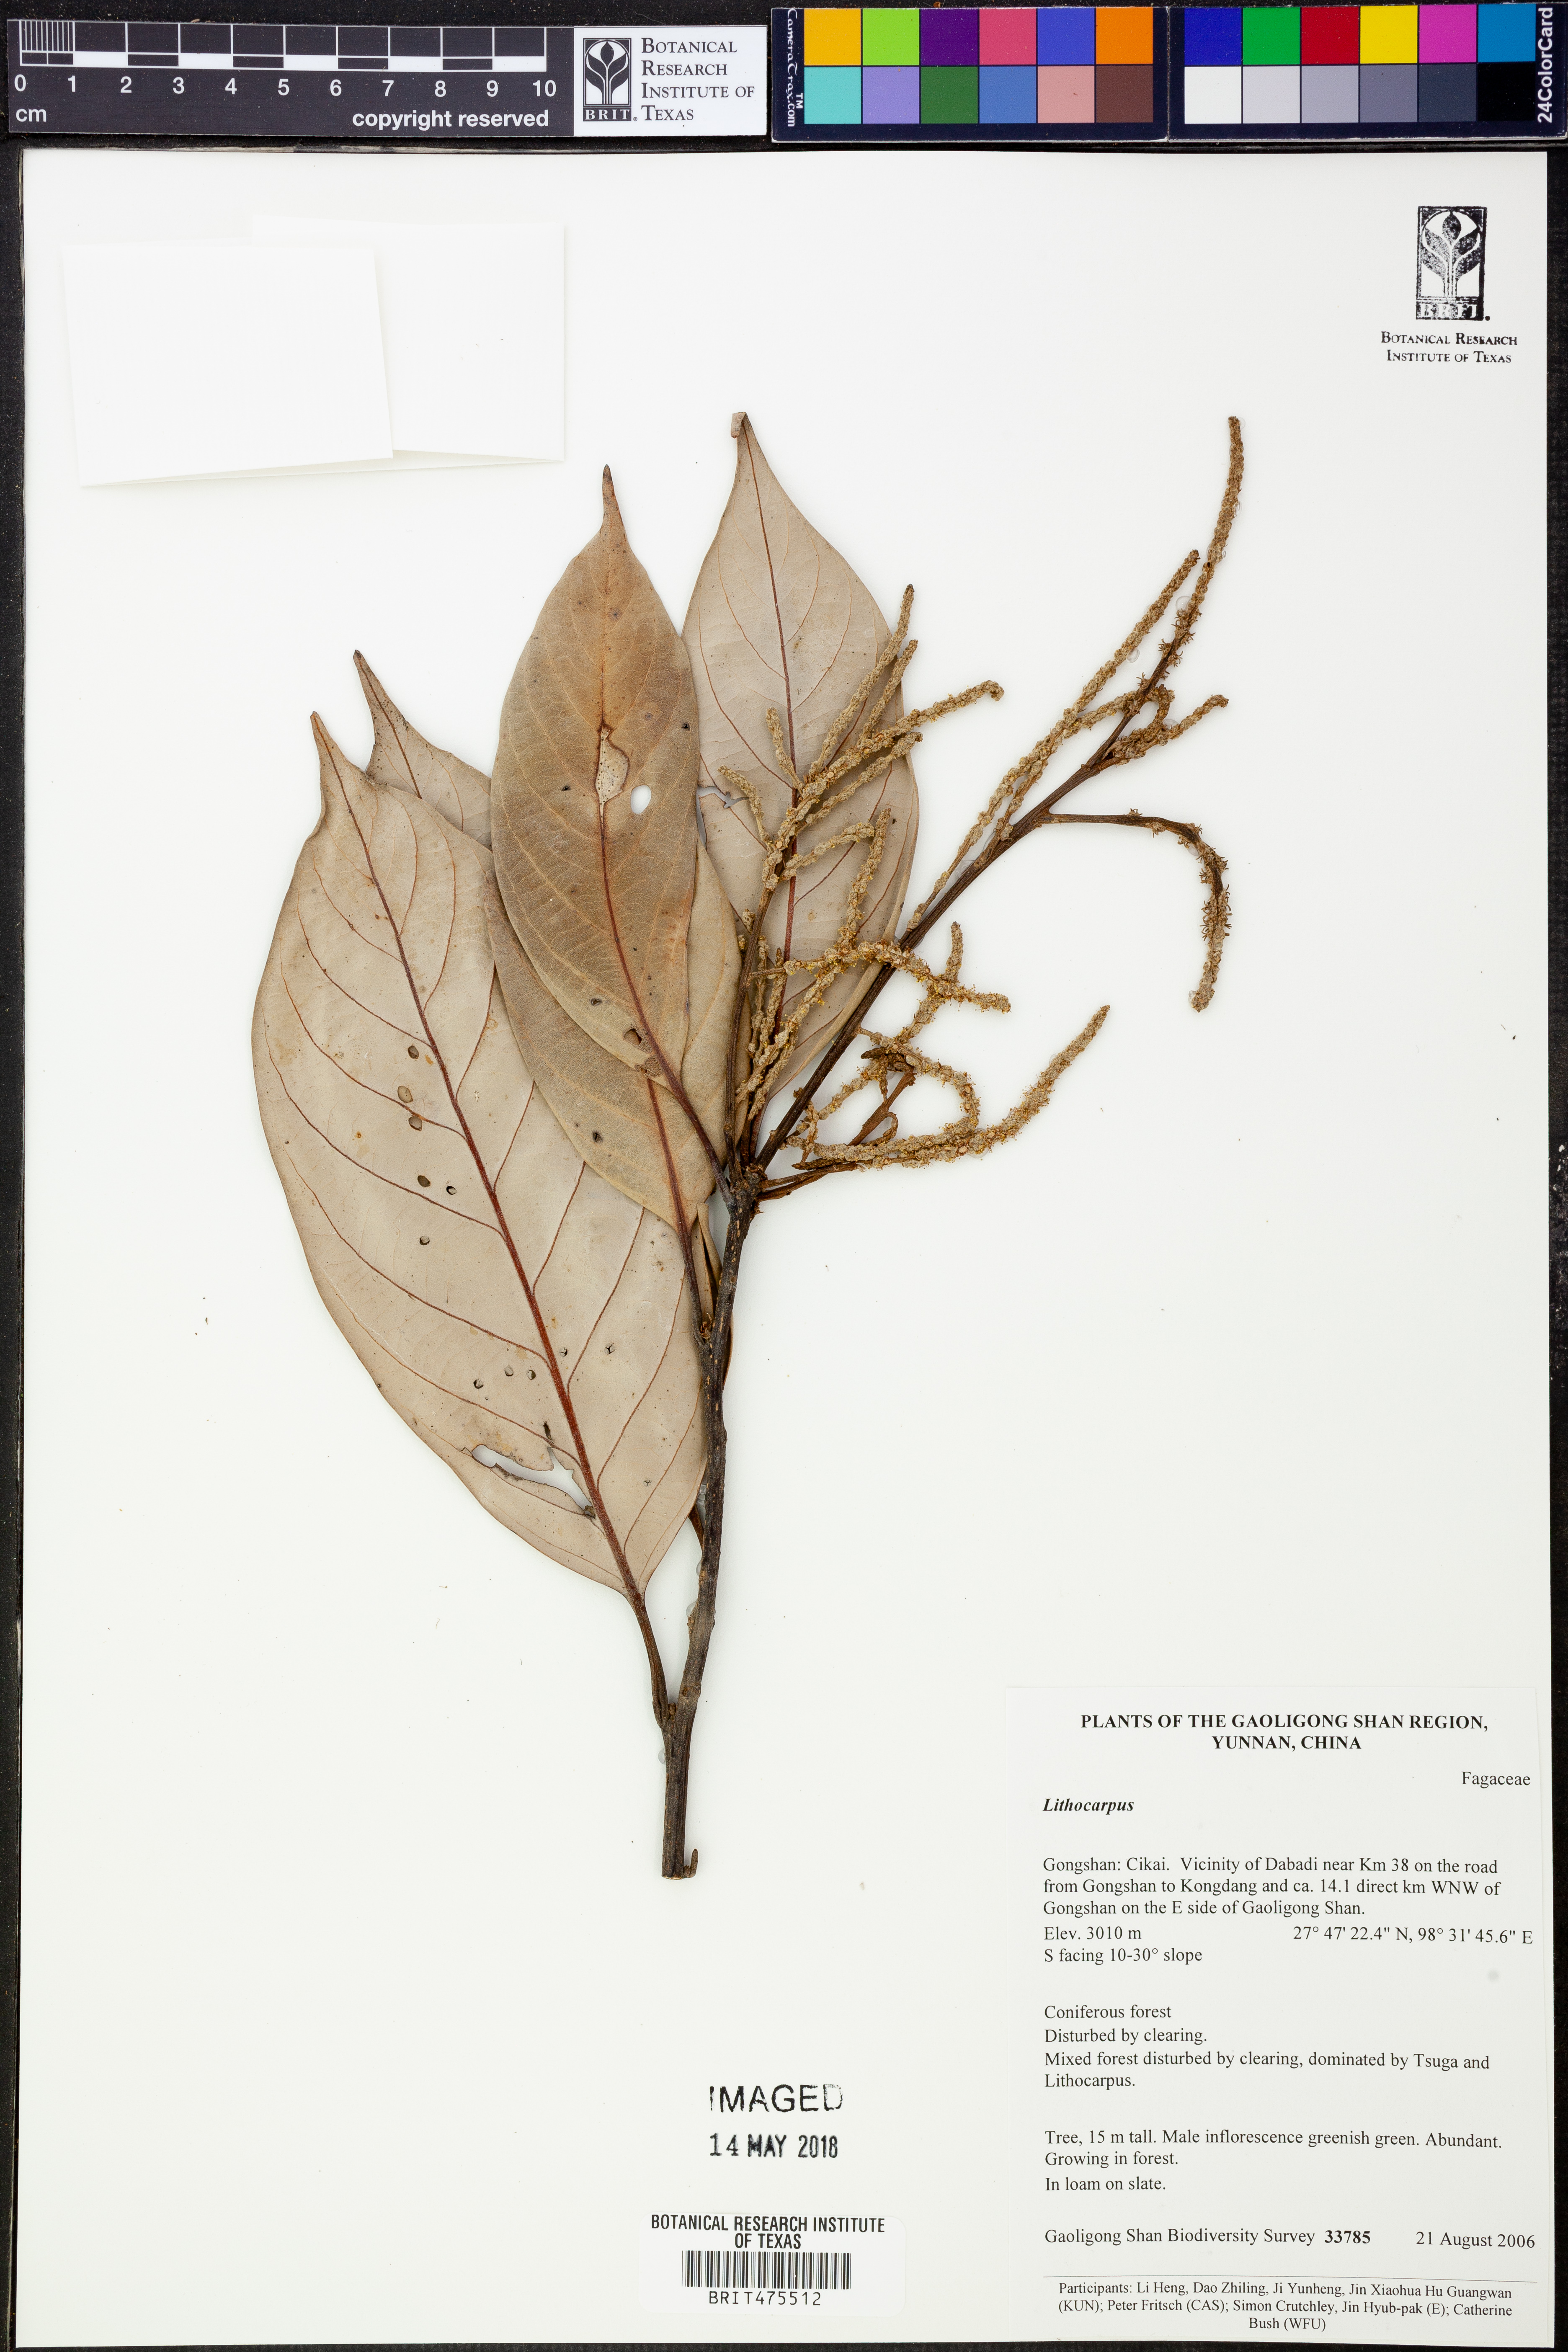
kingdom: Plantae
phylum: Tracheophyta
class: Magnoliopsida
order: Fagales
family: Fagaceae
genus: Lithocarpus
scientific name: Lithocarpus
